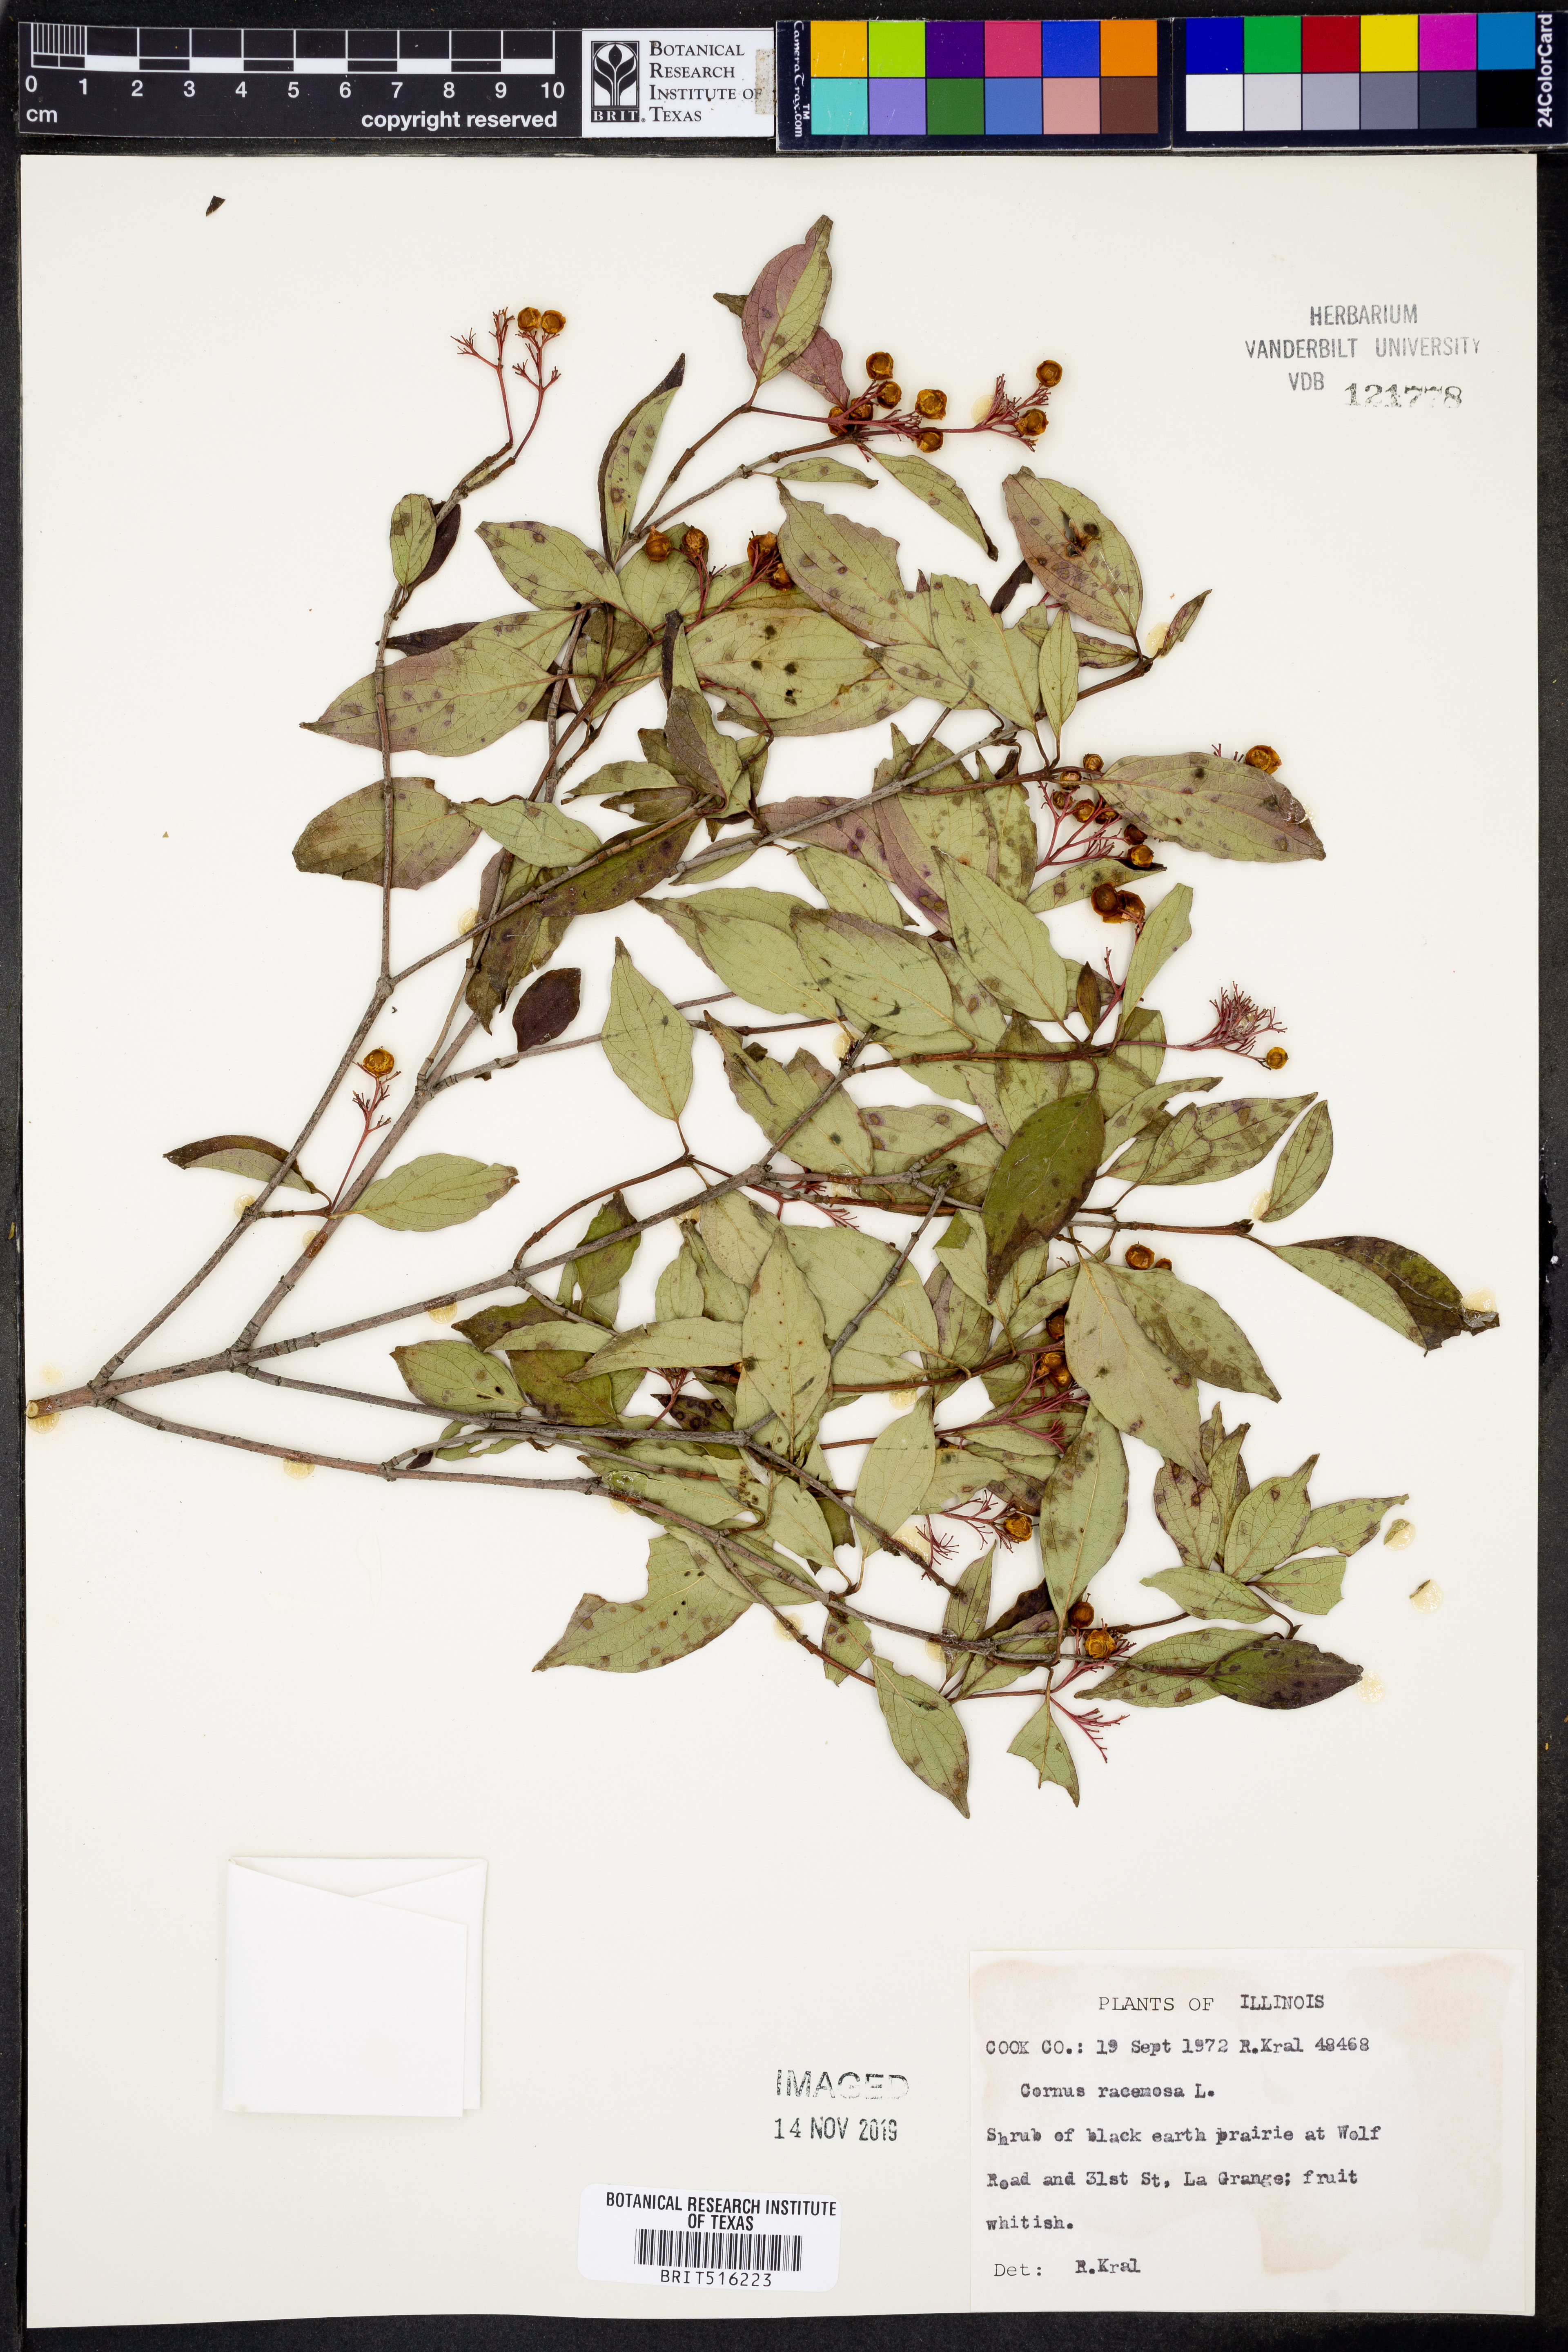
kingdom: Plantae
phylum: Tracheophyta
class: Magnoliopsida
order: Cornales
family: Cornaceae
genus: Cornus
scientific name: Cornus racemosa
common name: Panicled dogwood
